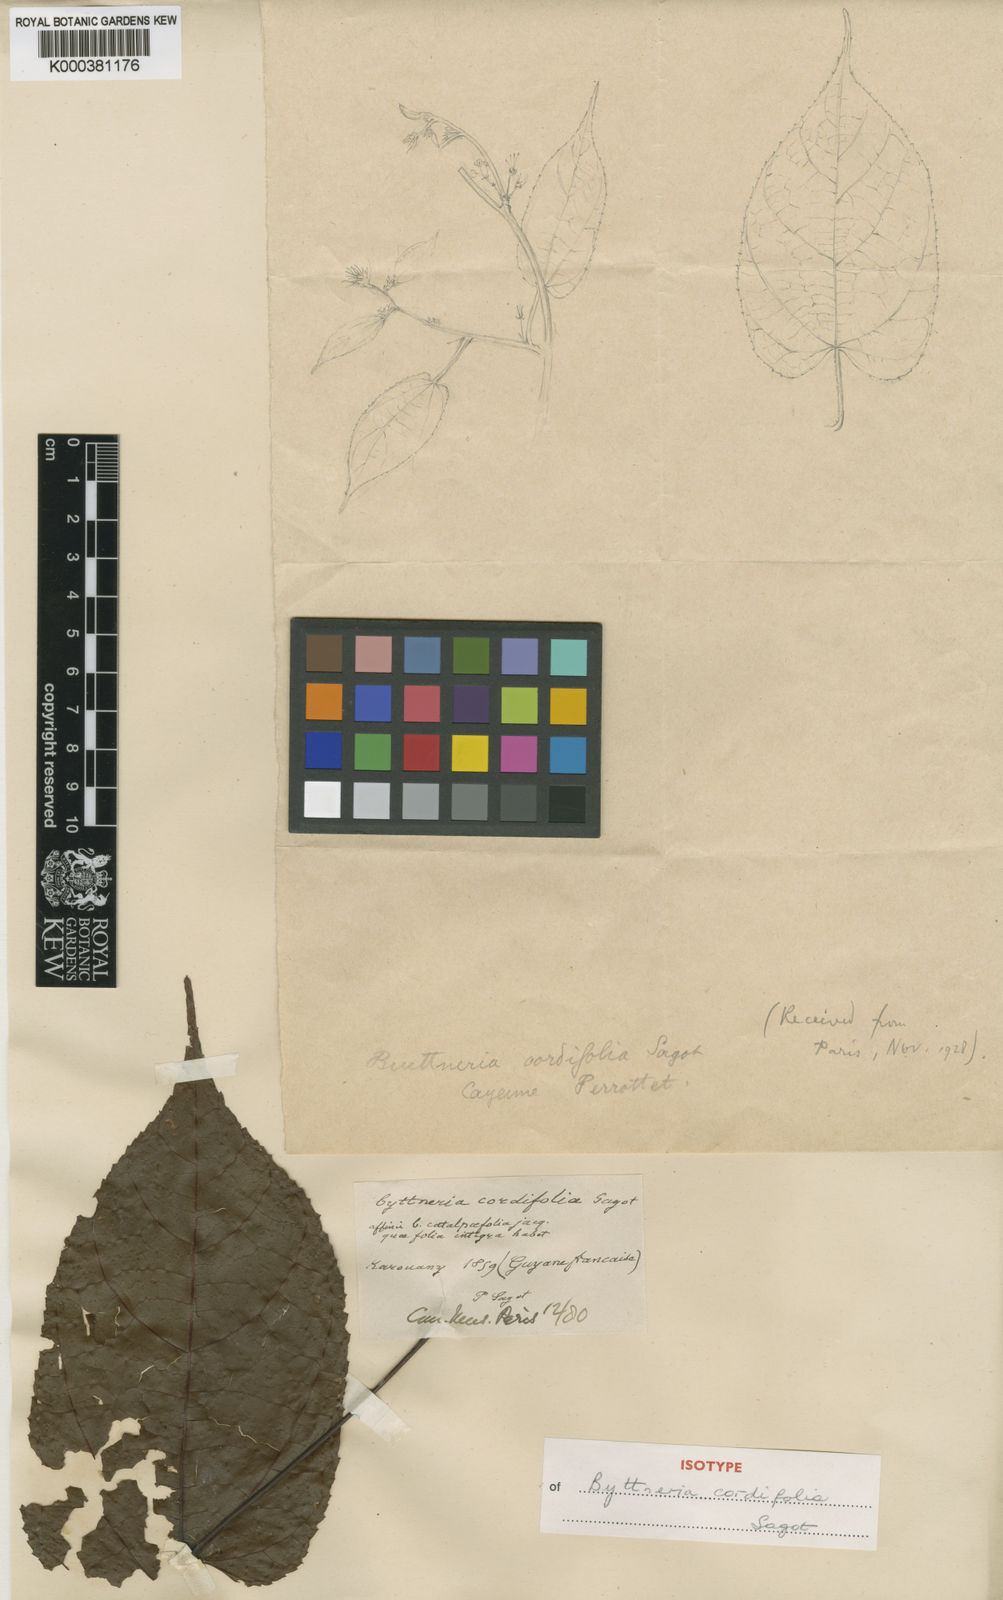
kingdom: Plantae
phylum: Tracheophyta
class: Magnoliopsida
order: Malvales
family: Malvaceae
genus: Byttneria
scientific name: Byttneria catalpifolia
